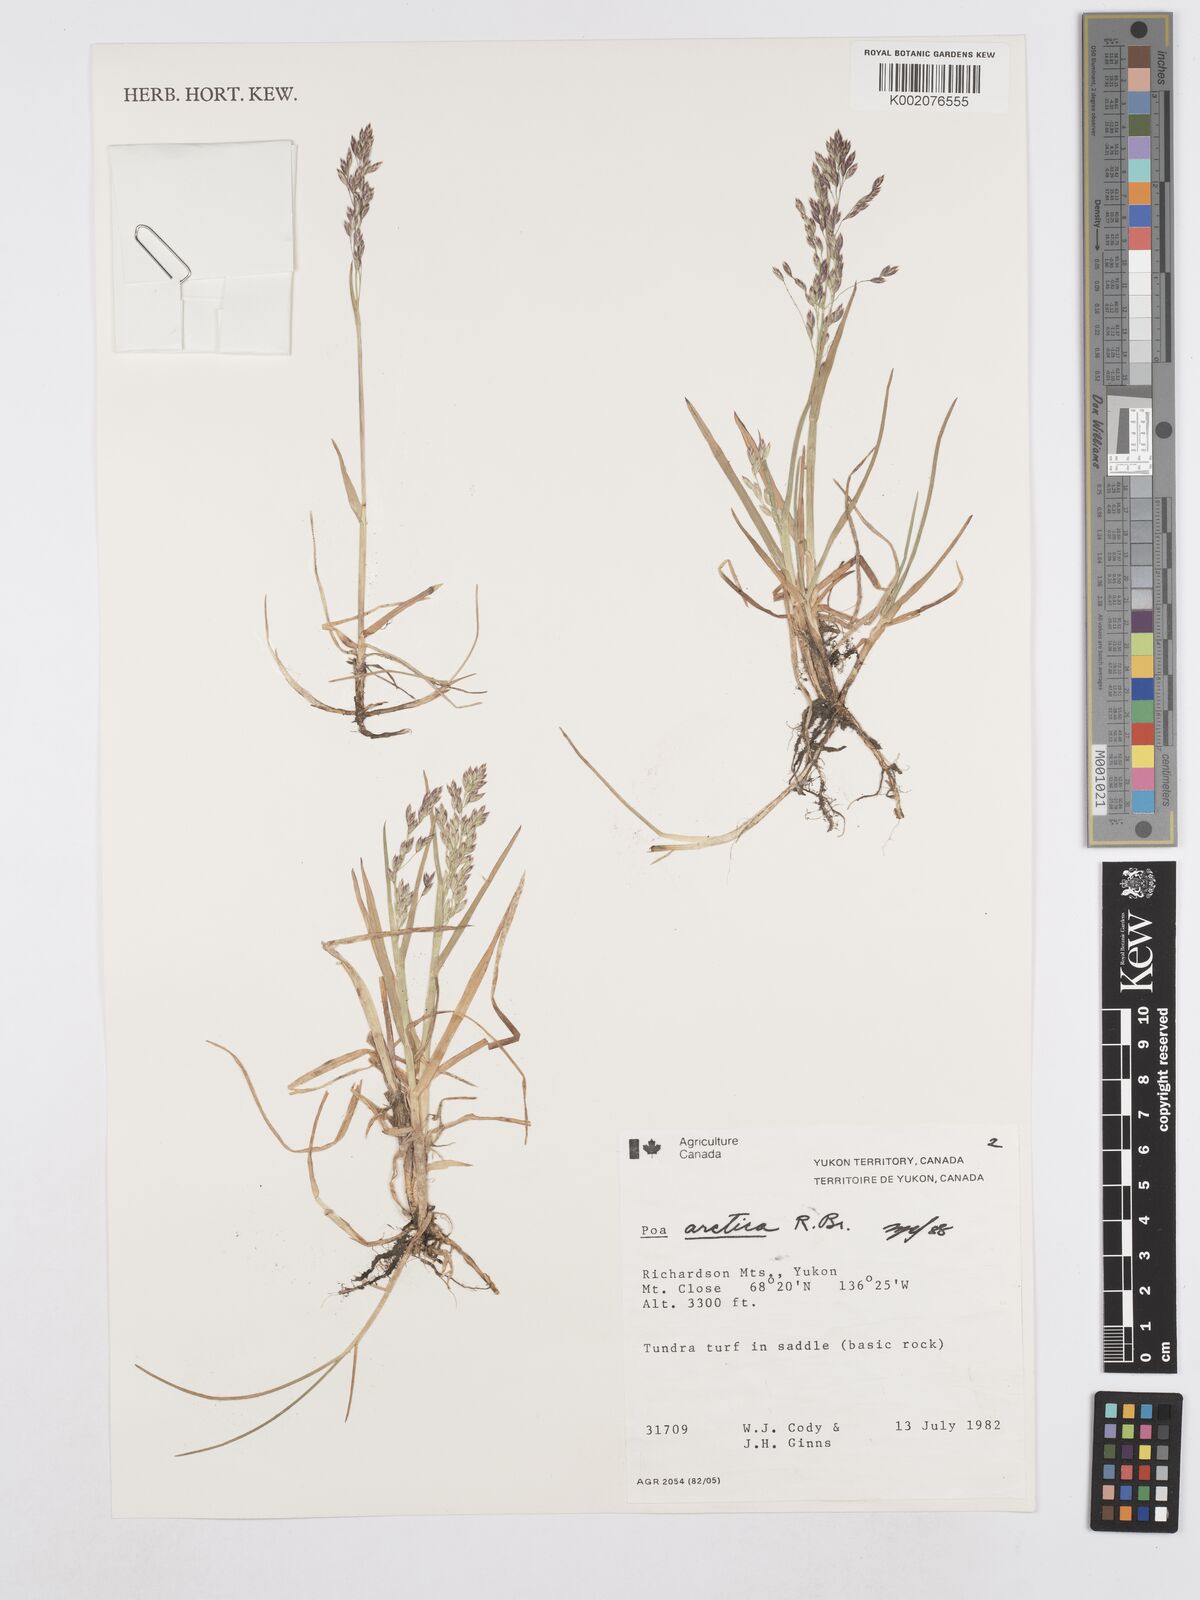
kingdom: Plantae
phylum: Tracheophyta
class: Liliopsida
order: Poales
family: Poaceae
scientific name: Poaceae
